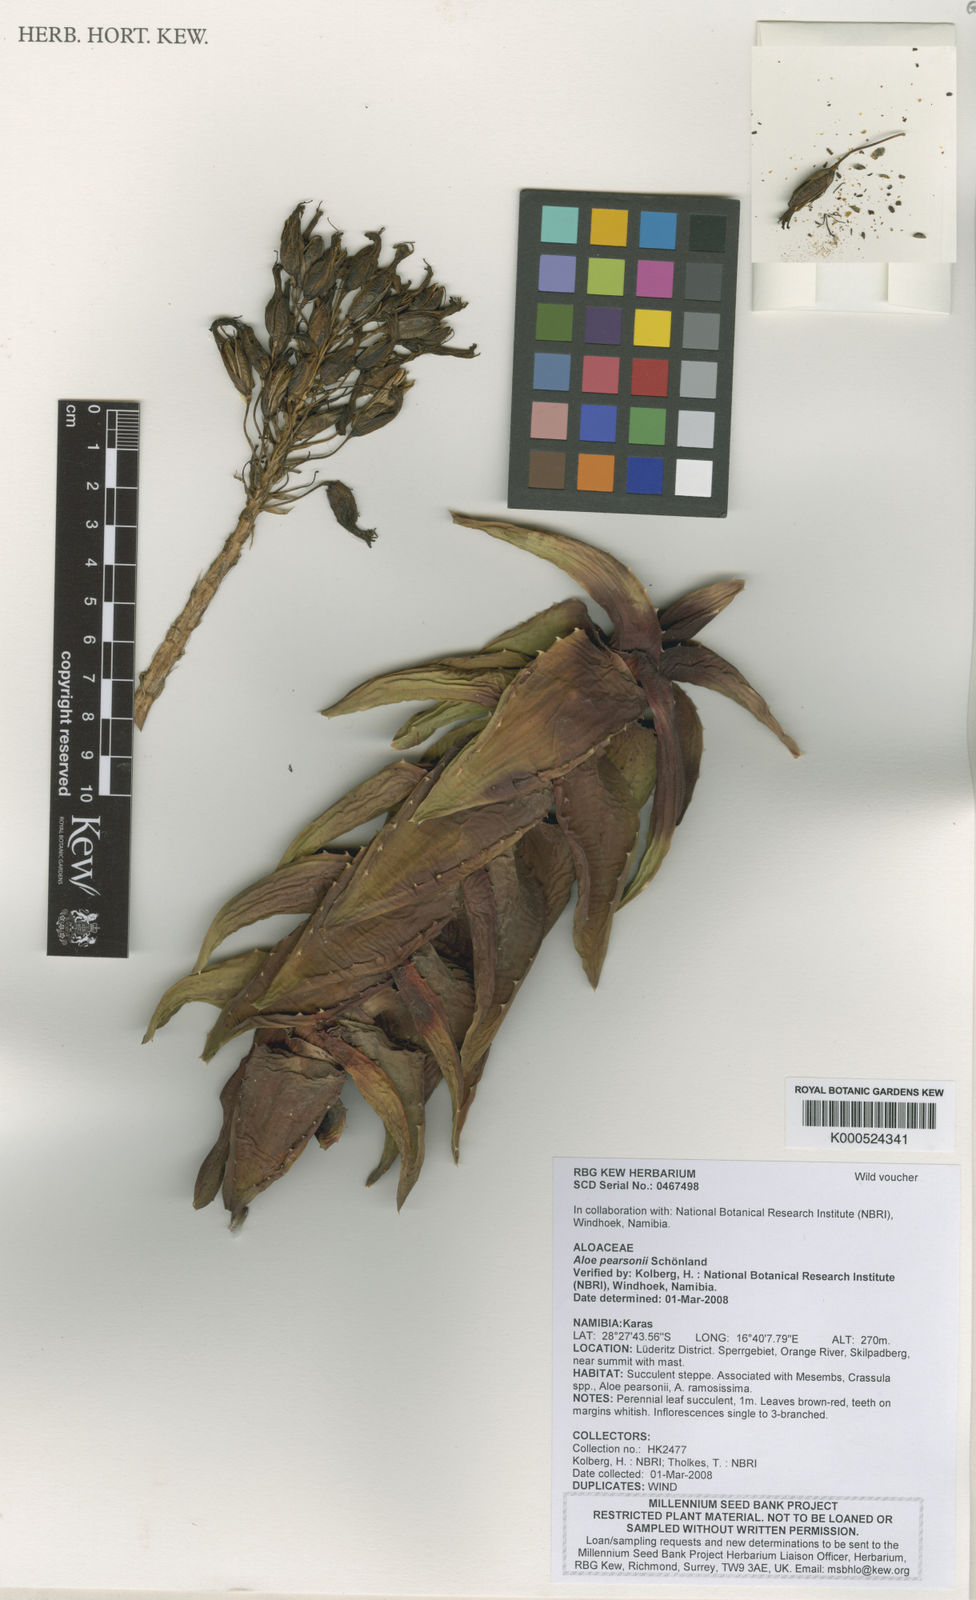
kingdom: Plantae
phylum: Tracheophyta
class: Liliopsida
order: Asparagales
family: Asphodelaceae
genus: Aloe
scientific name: Aloe
